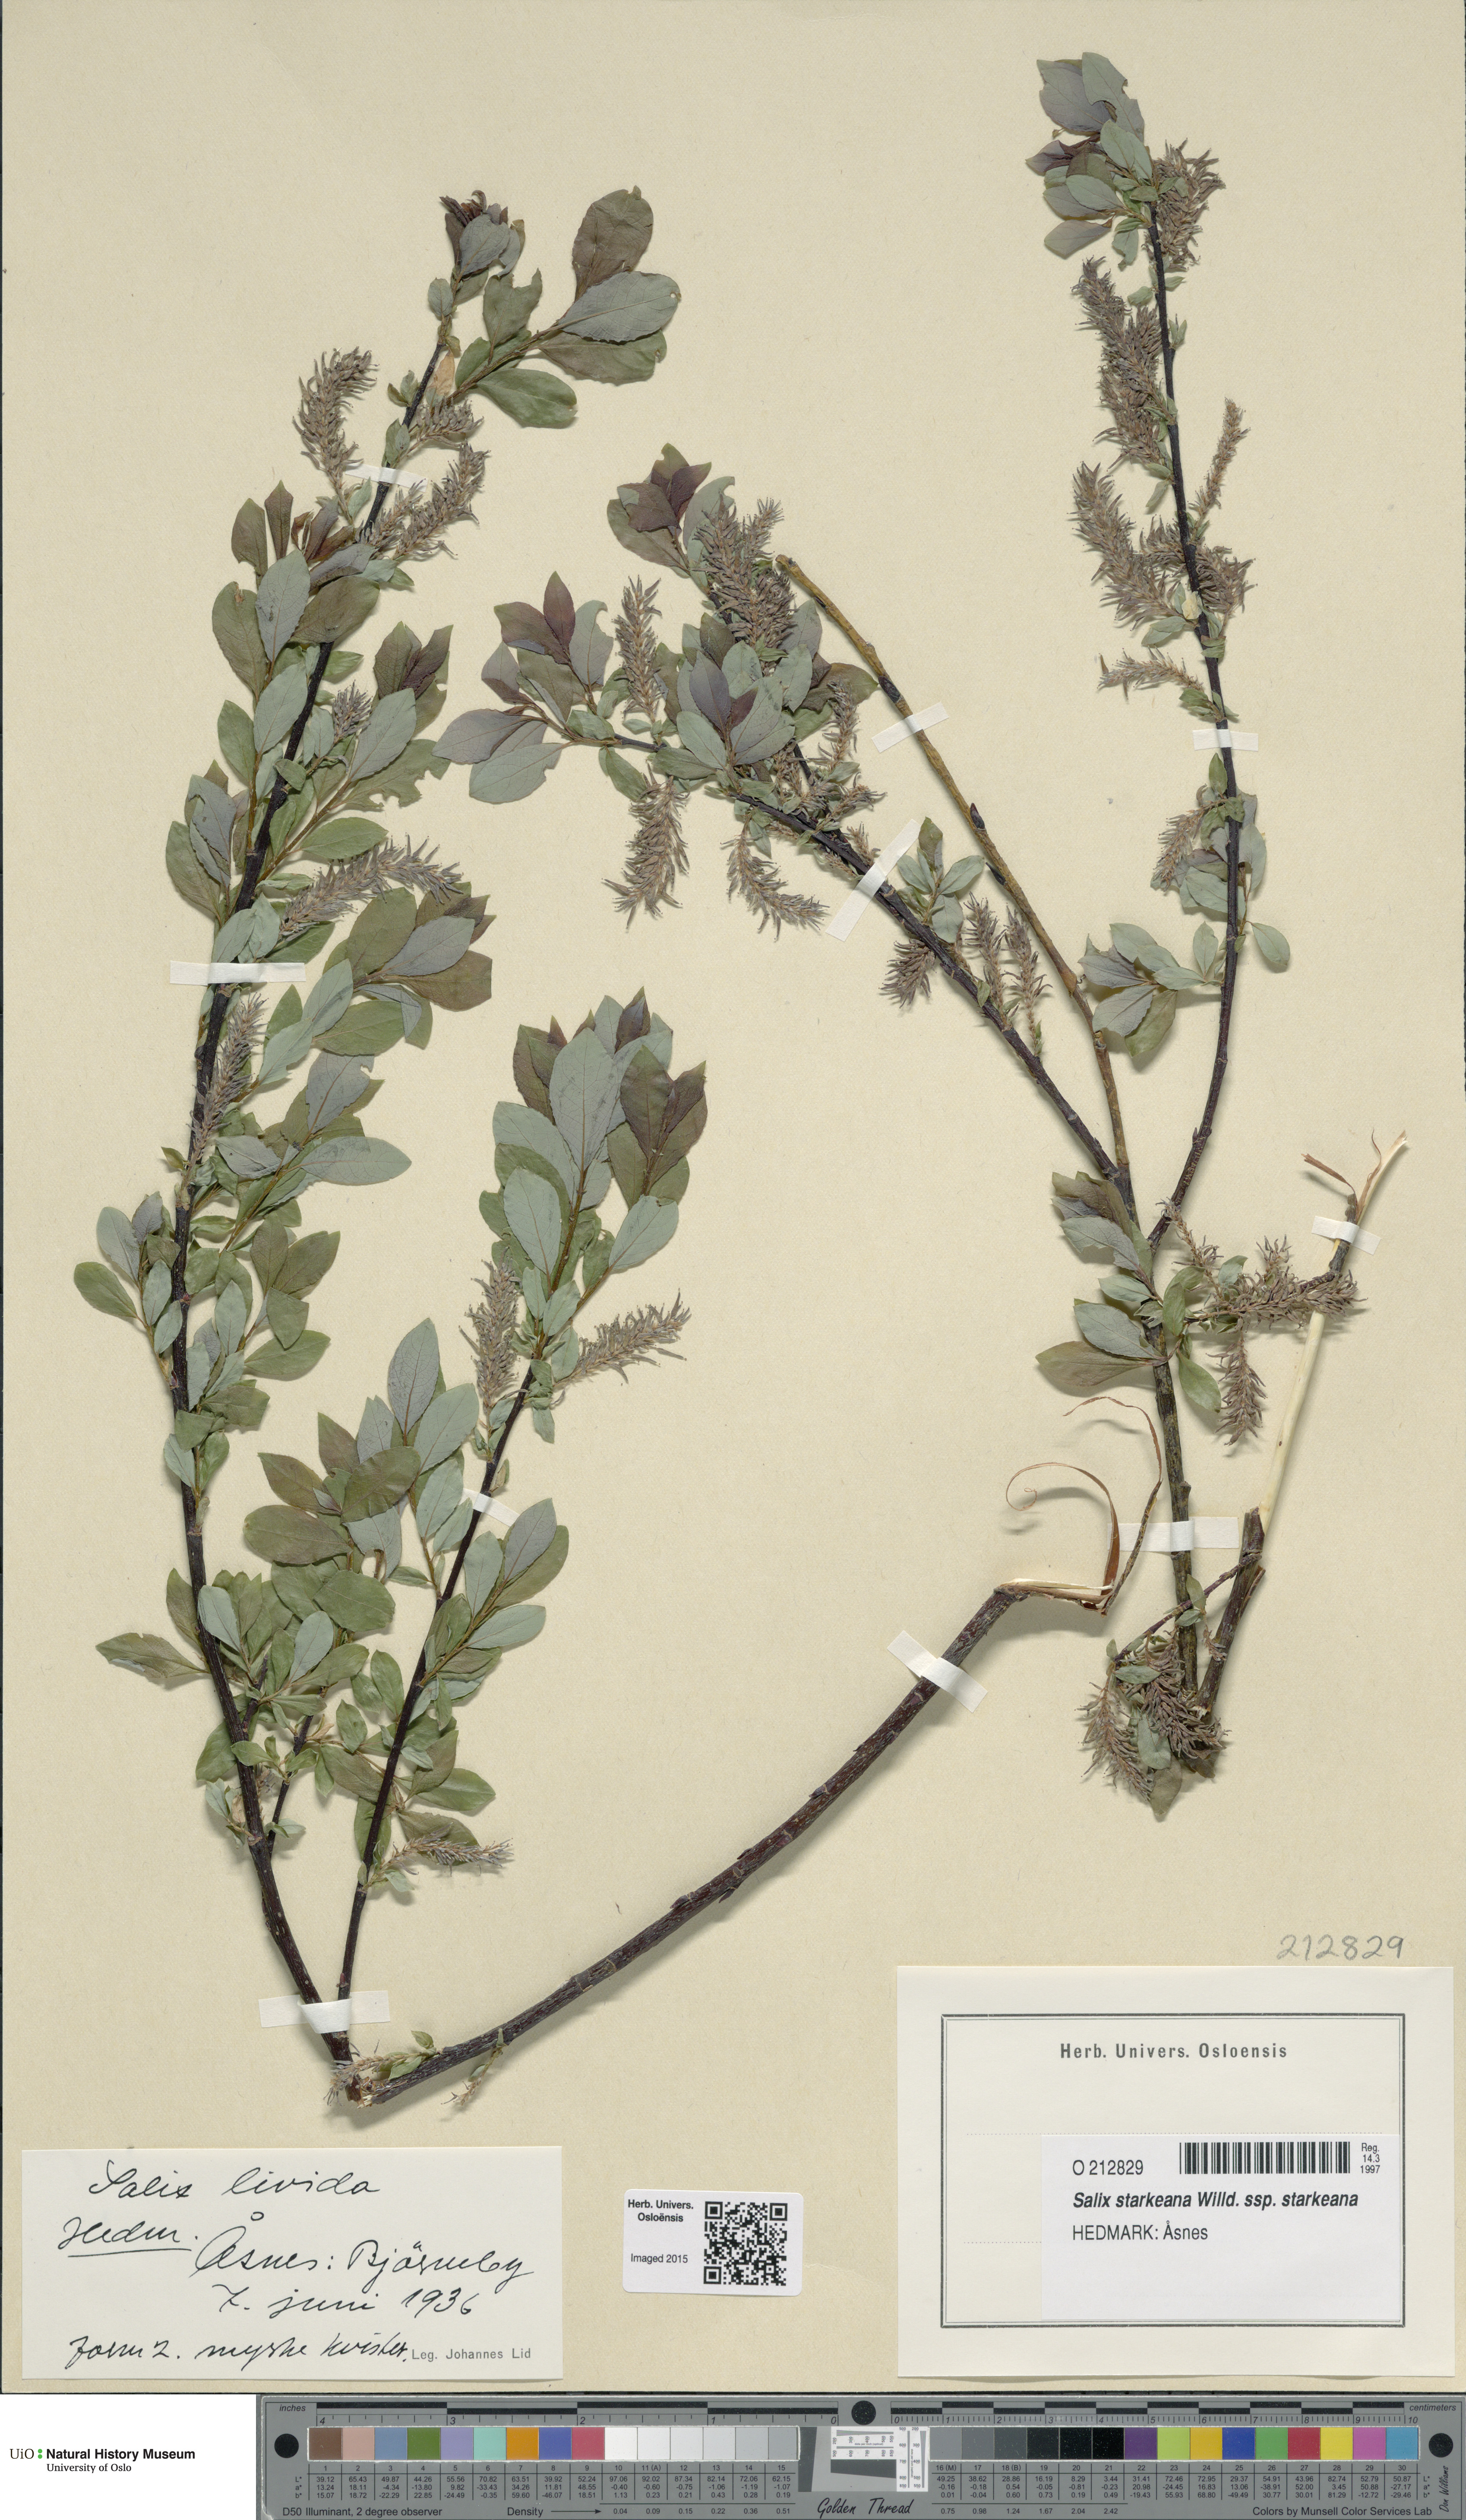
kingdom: Plantae
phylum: Tracheophyta
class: Magnoliopsida
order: Malpighiales
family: Salicaceae
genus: Salix
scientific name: Salix starkeana
